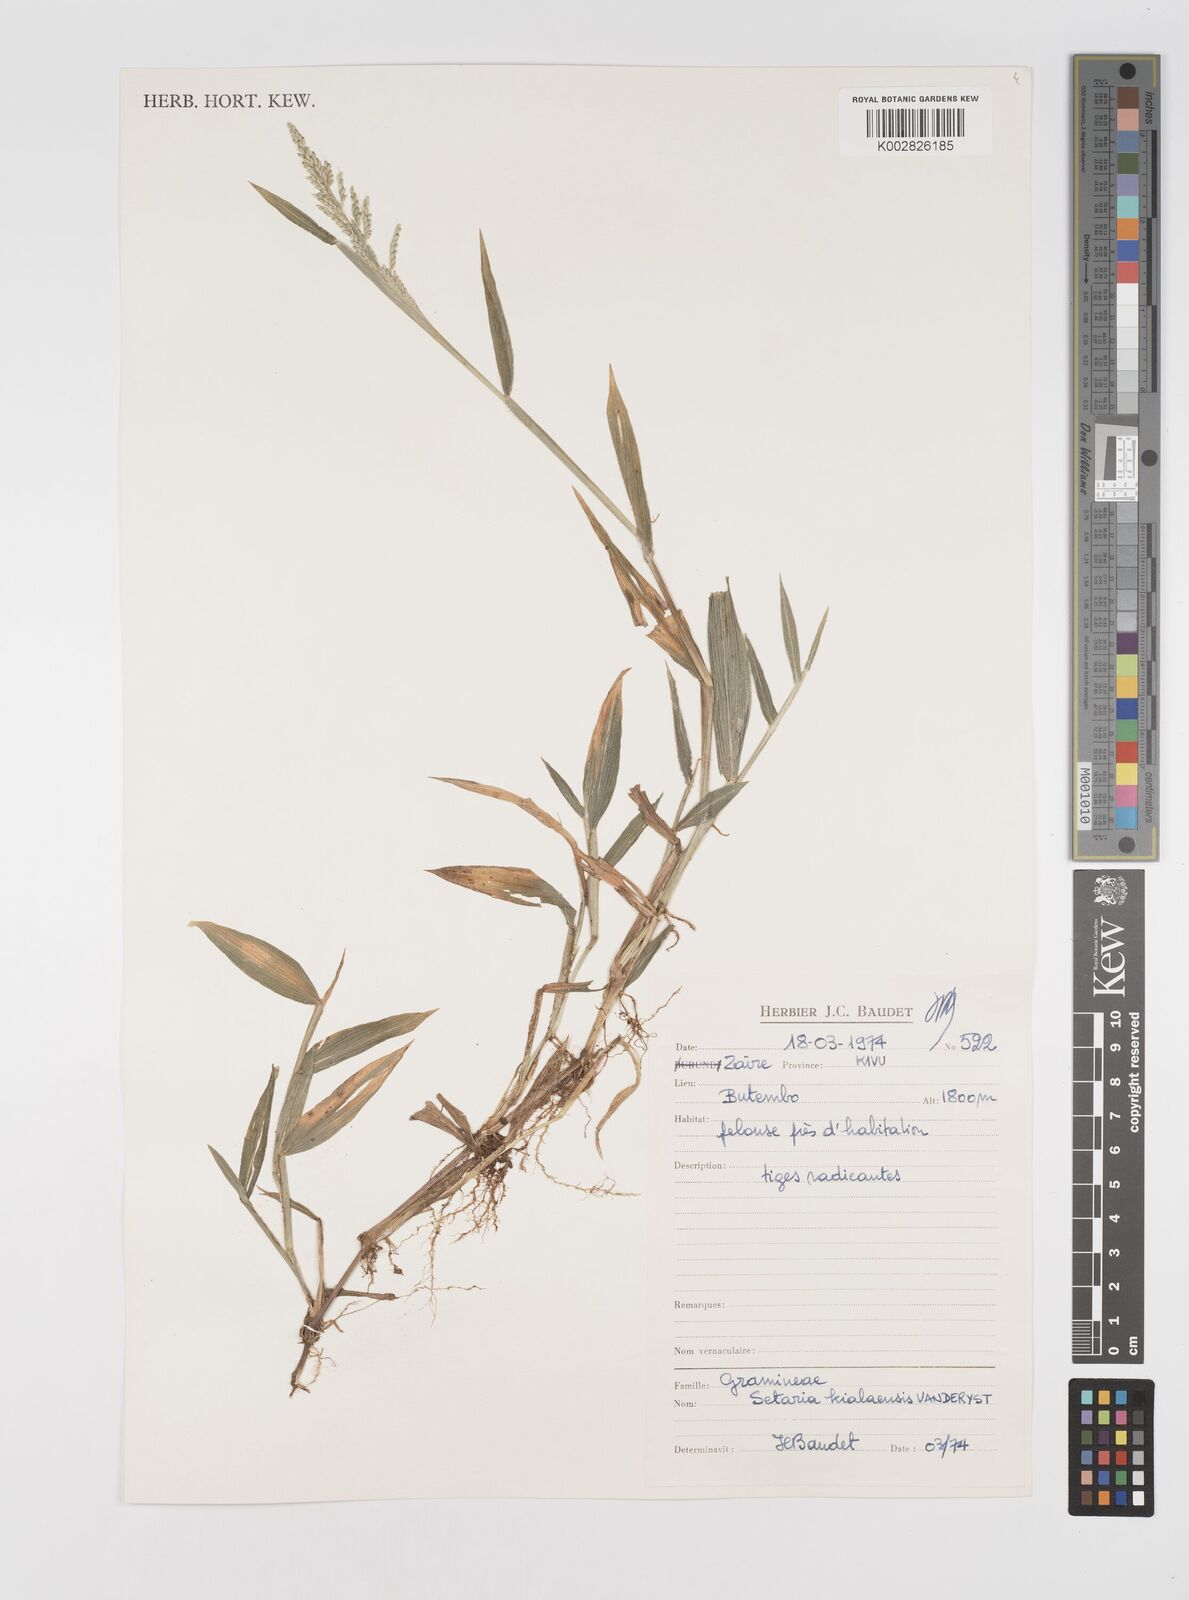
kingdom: Plantae
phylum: Tracheophyta
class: Liliopsida
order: Poales
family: Poaceae
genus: Setaria
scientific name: Setaria homonyma
